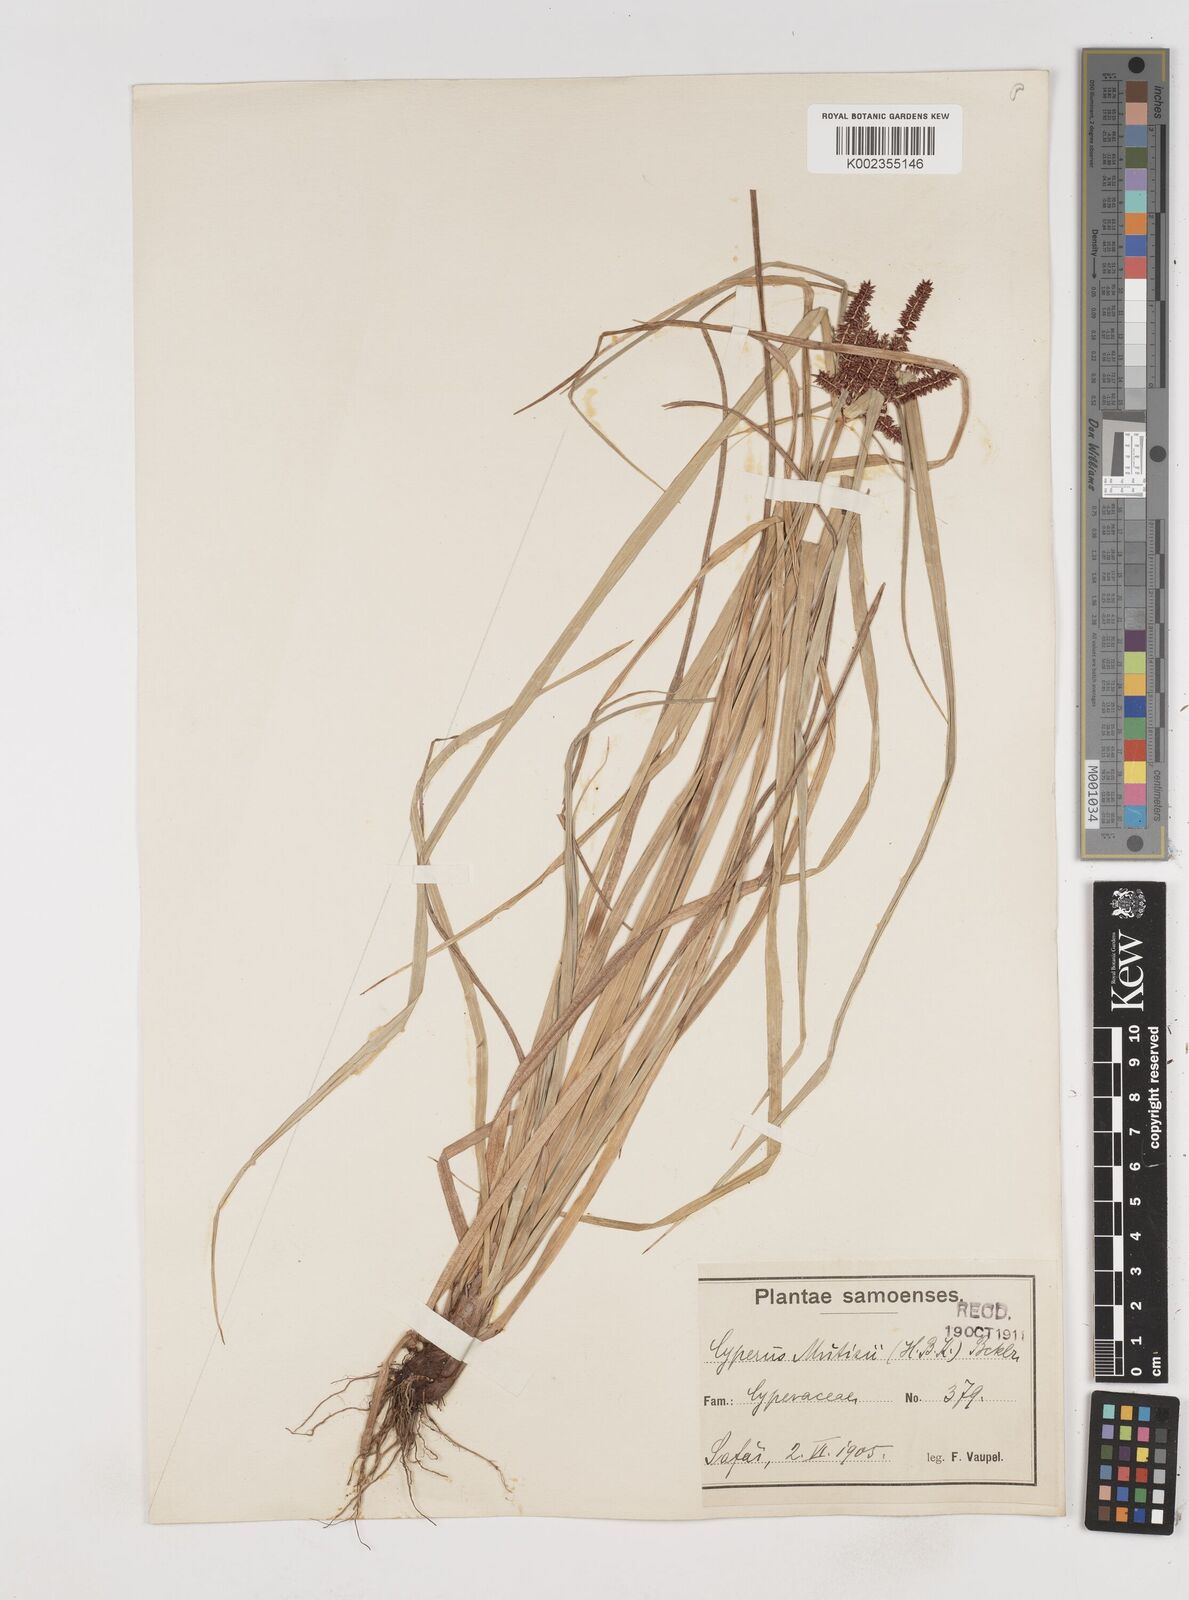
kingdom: Plantae
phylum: Tracheophyta
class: Liliopsida
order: Poales
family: Cyperaceae
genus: Cyperus
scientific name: Cyperus seemannianus
